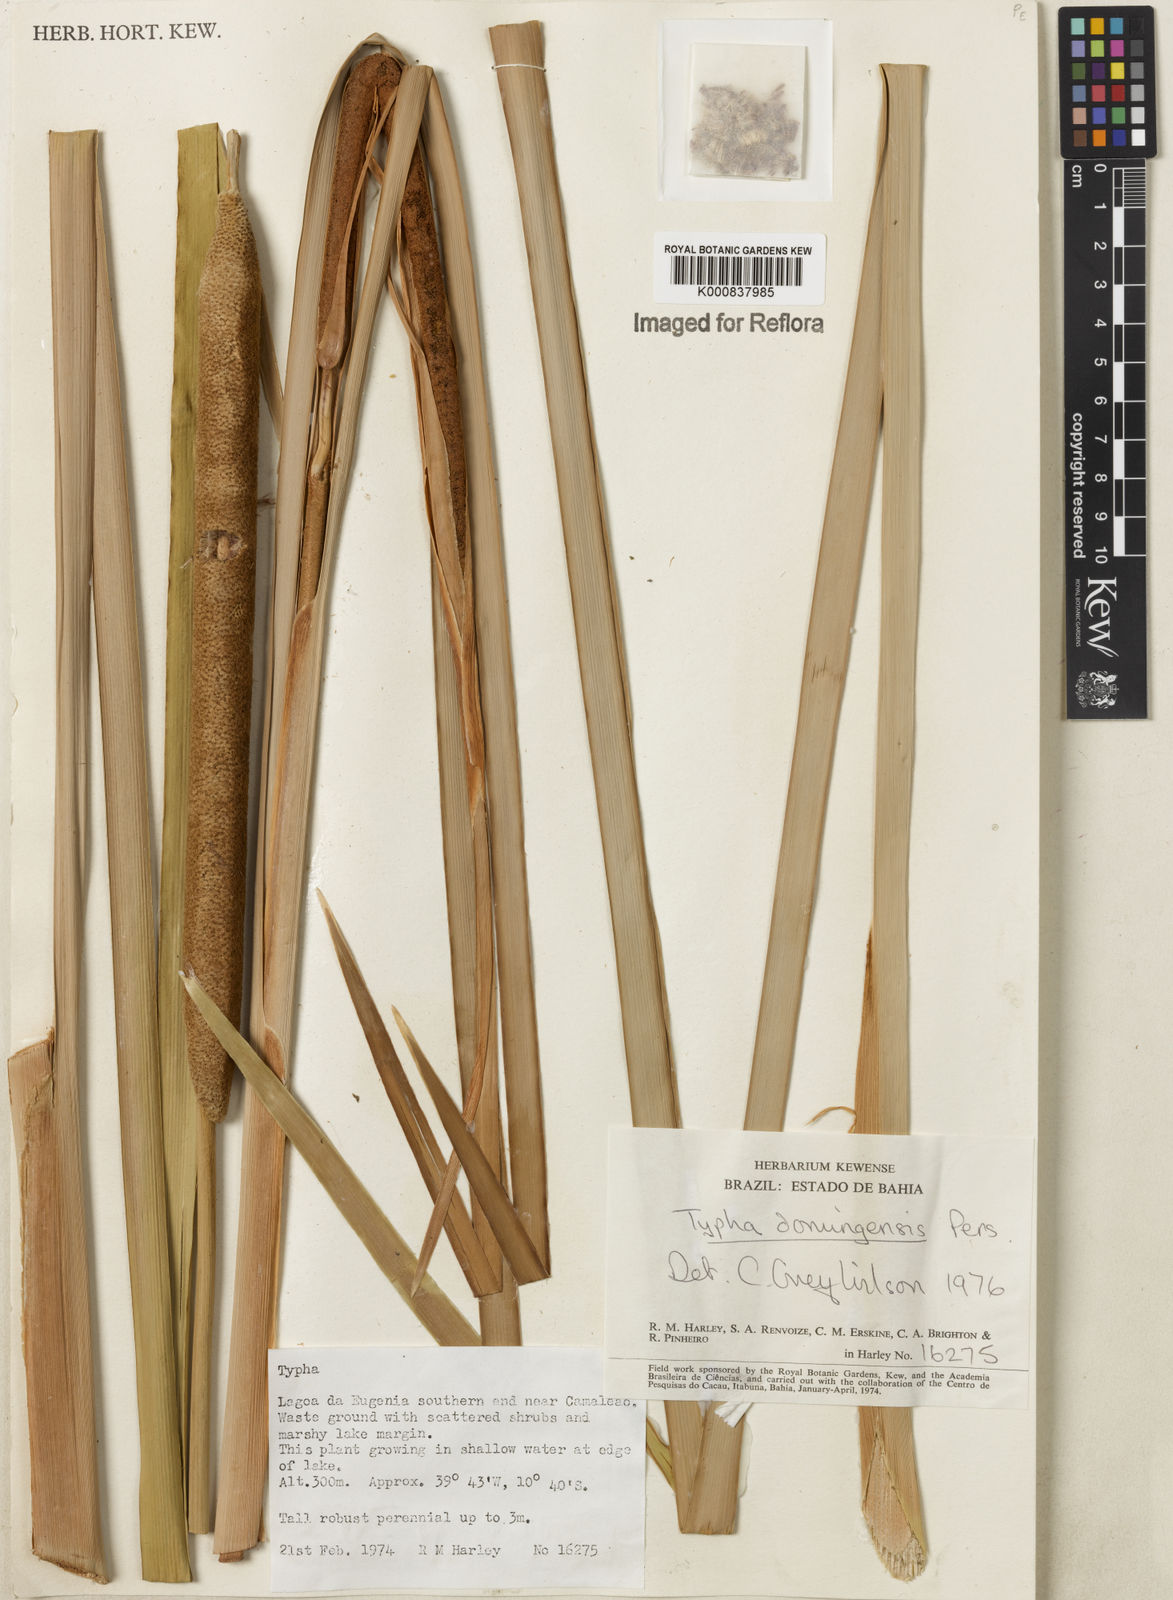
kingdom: Plantae
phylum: Tracheophyta
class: Liliopsida
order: Poales
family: Typhaceae
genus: Typha
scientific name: Typha
